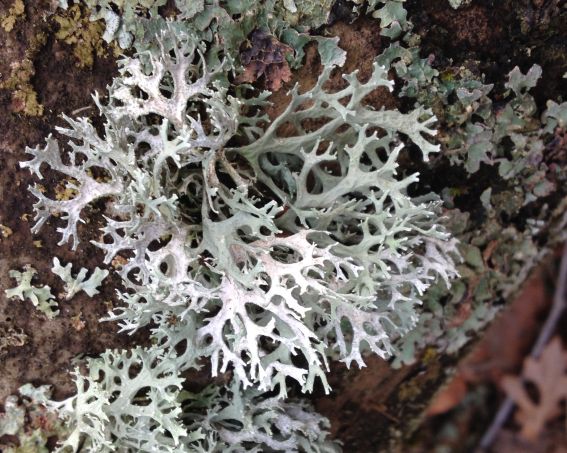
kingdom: Fungi
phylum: Ascomycota
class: Lecanoromycetes
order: Lecanorales
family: Parmeliaceae
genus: Evernia
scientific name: Evernia prunastri
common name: almindelig slåenlav
